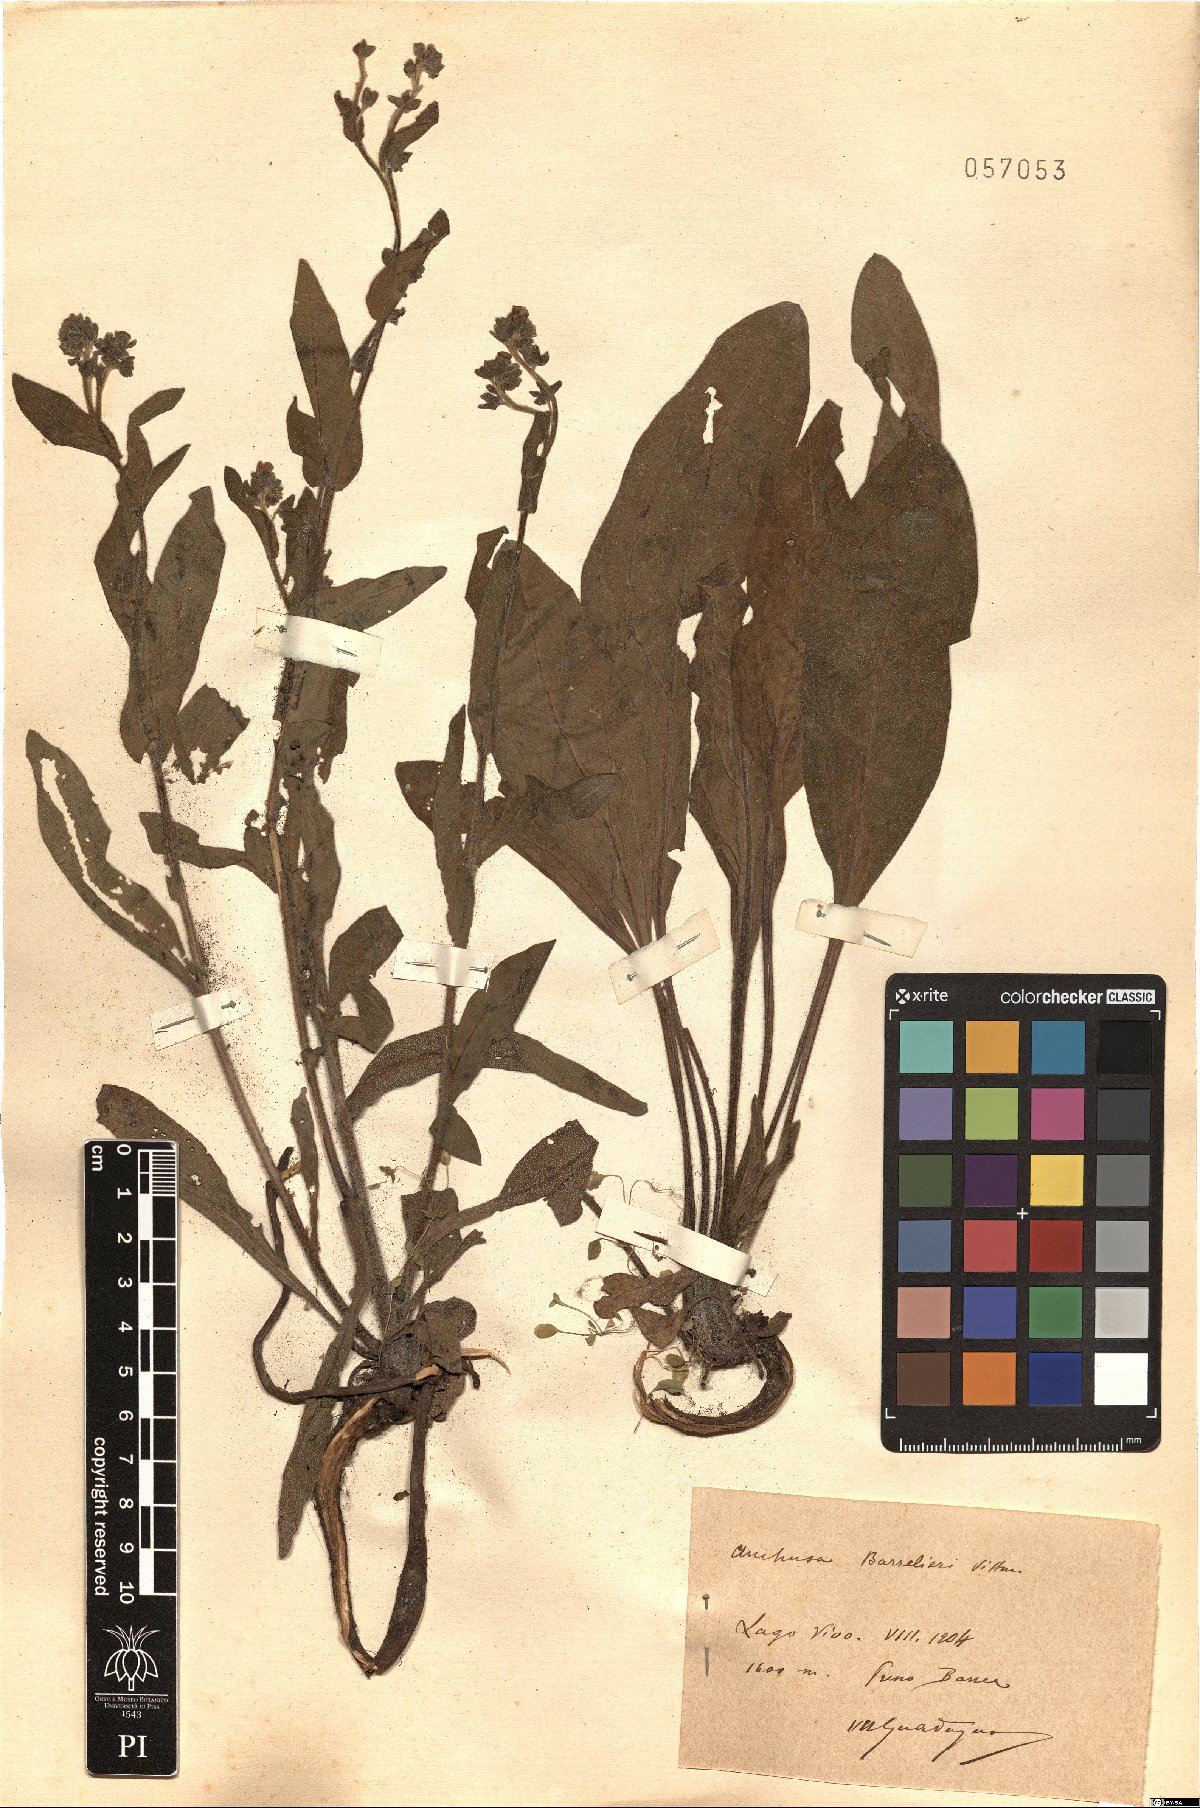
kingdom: Plantae
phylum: Tracheophyta
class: Magnoliopsida
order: Boraginales
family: Boraginaceae
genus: Cynoglottis
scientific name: Cynoglottis barrelieri
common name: False alkanet
